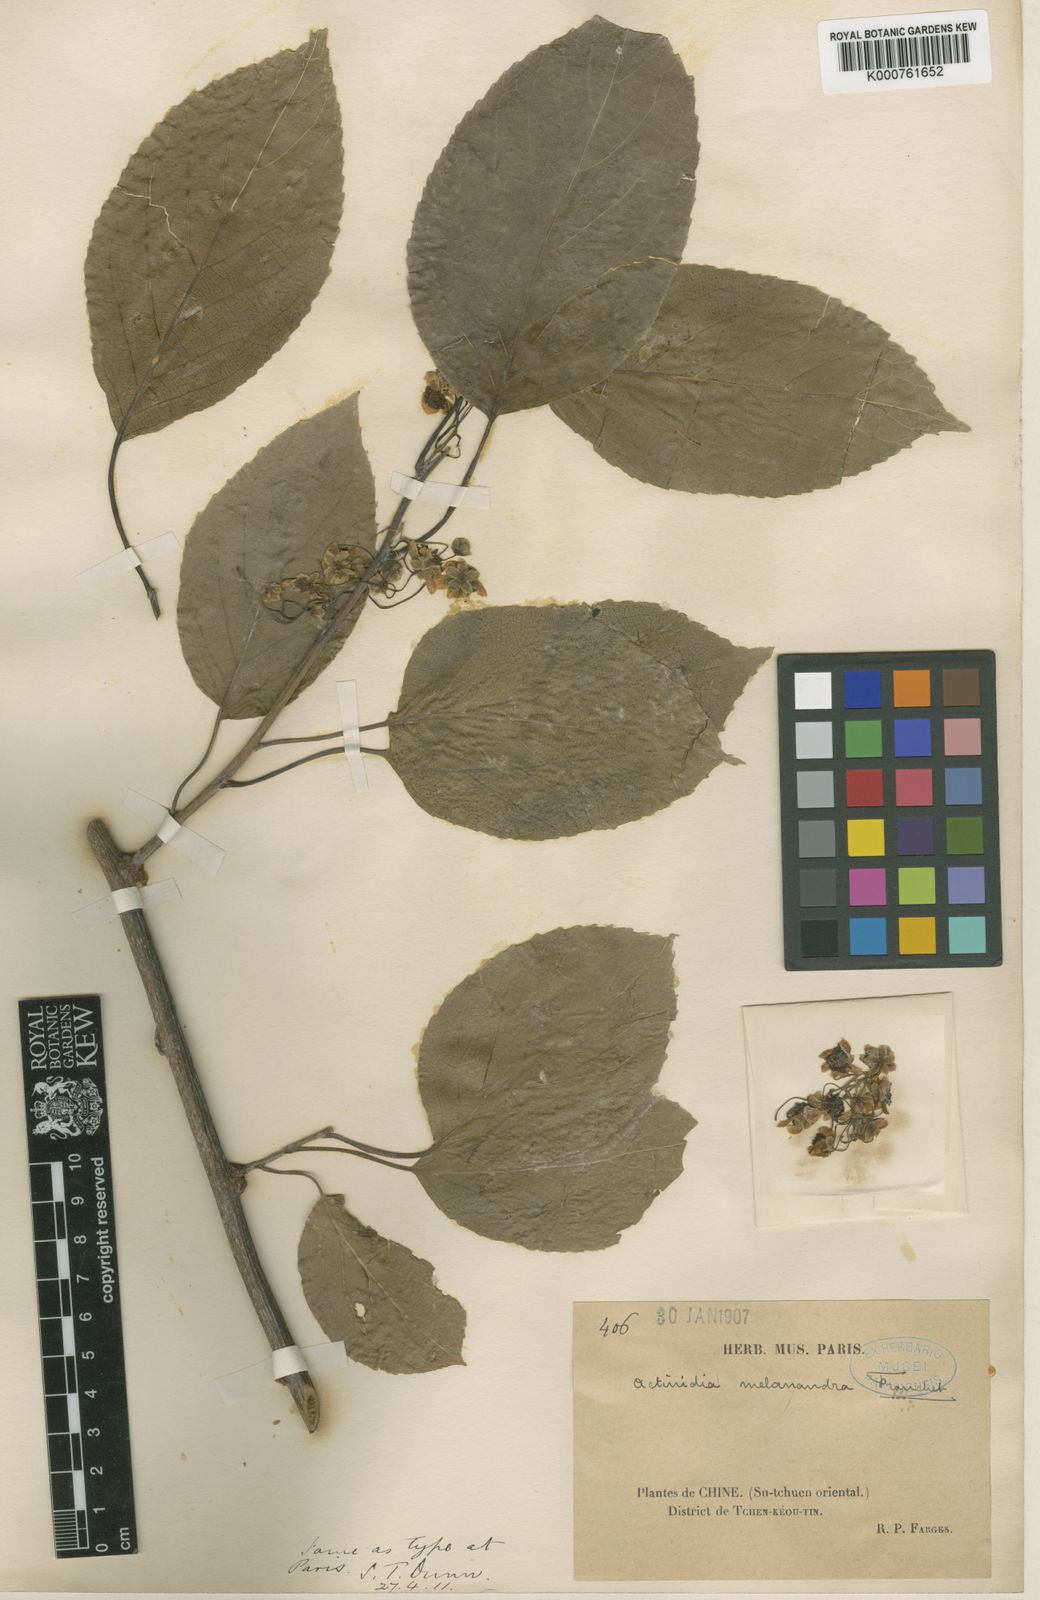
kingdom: Plantae
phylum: Tracheophyta
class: Magnoliopsida
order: Ericales
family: Actinidiaceae
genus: Actinidia
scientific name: Actinidia melanandra
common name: Red kiwi
